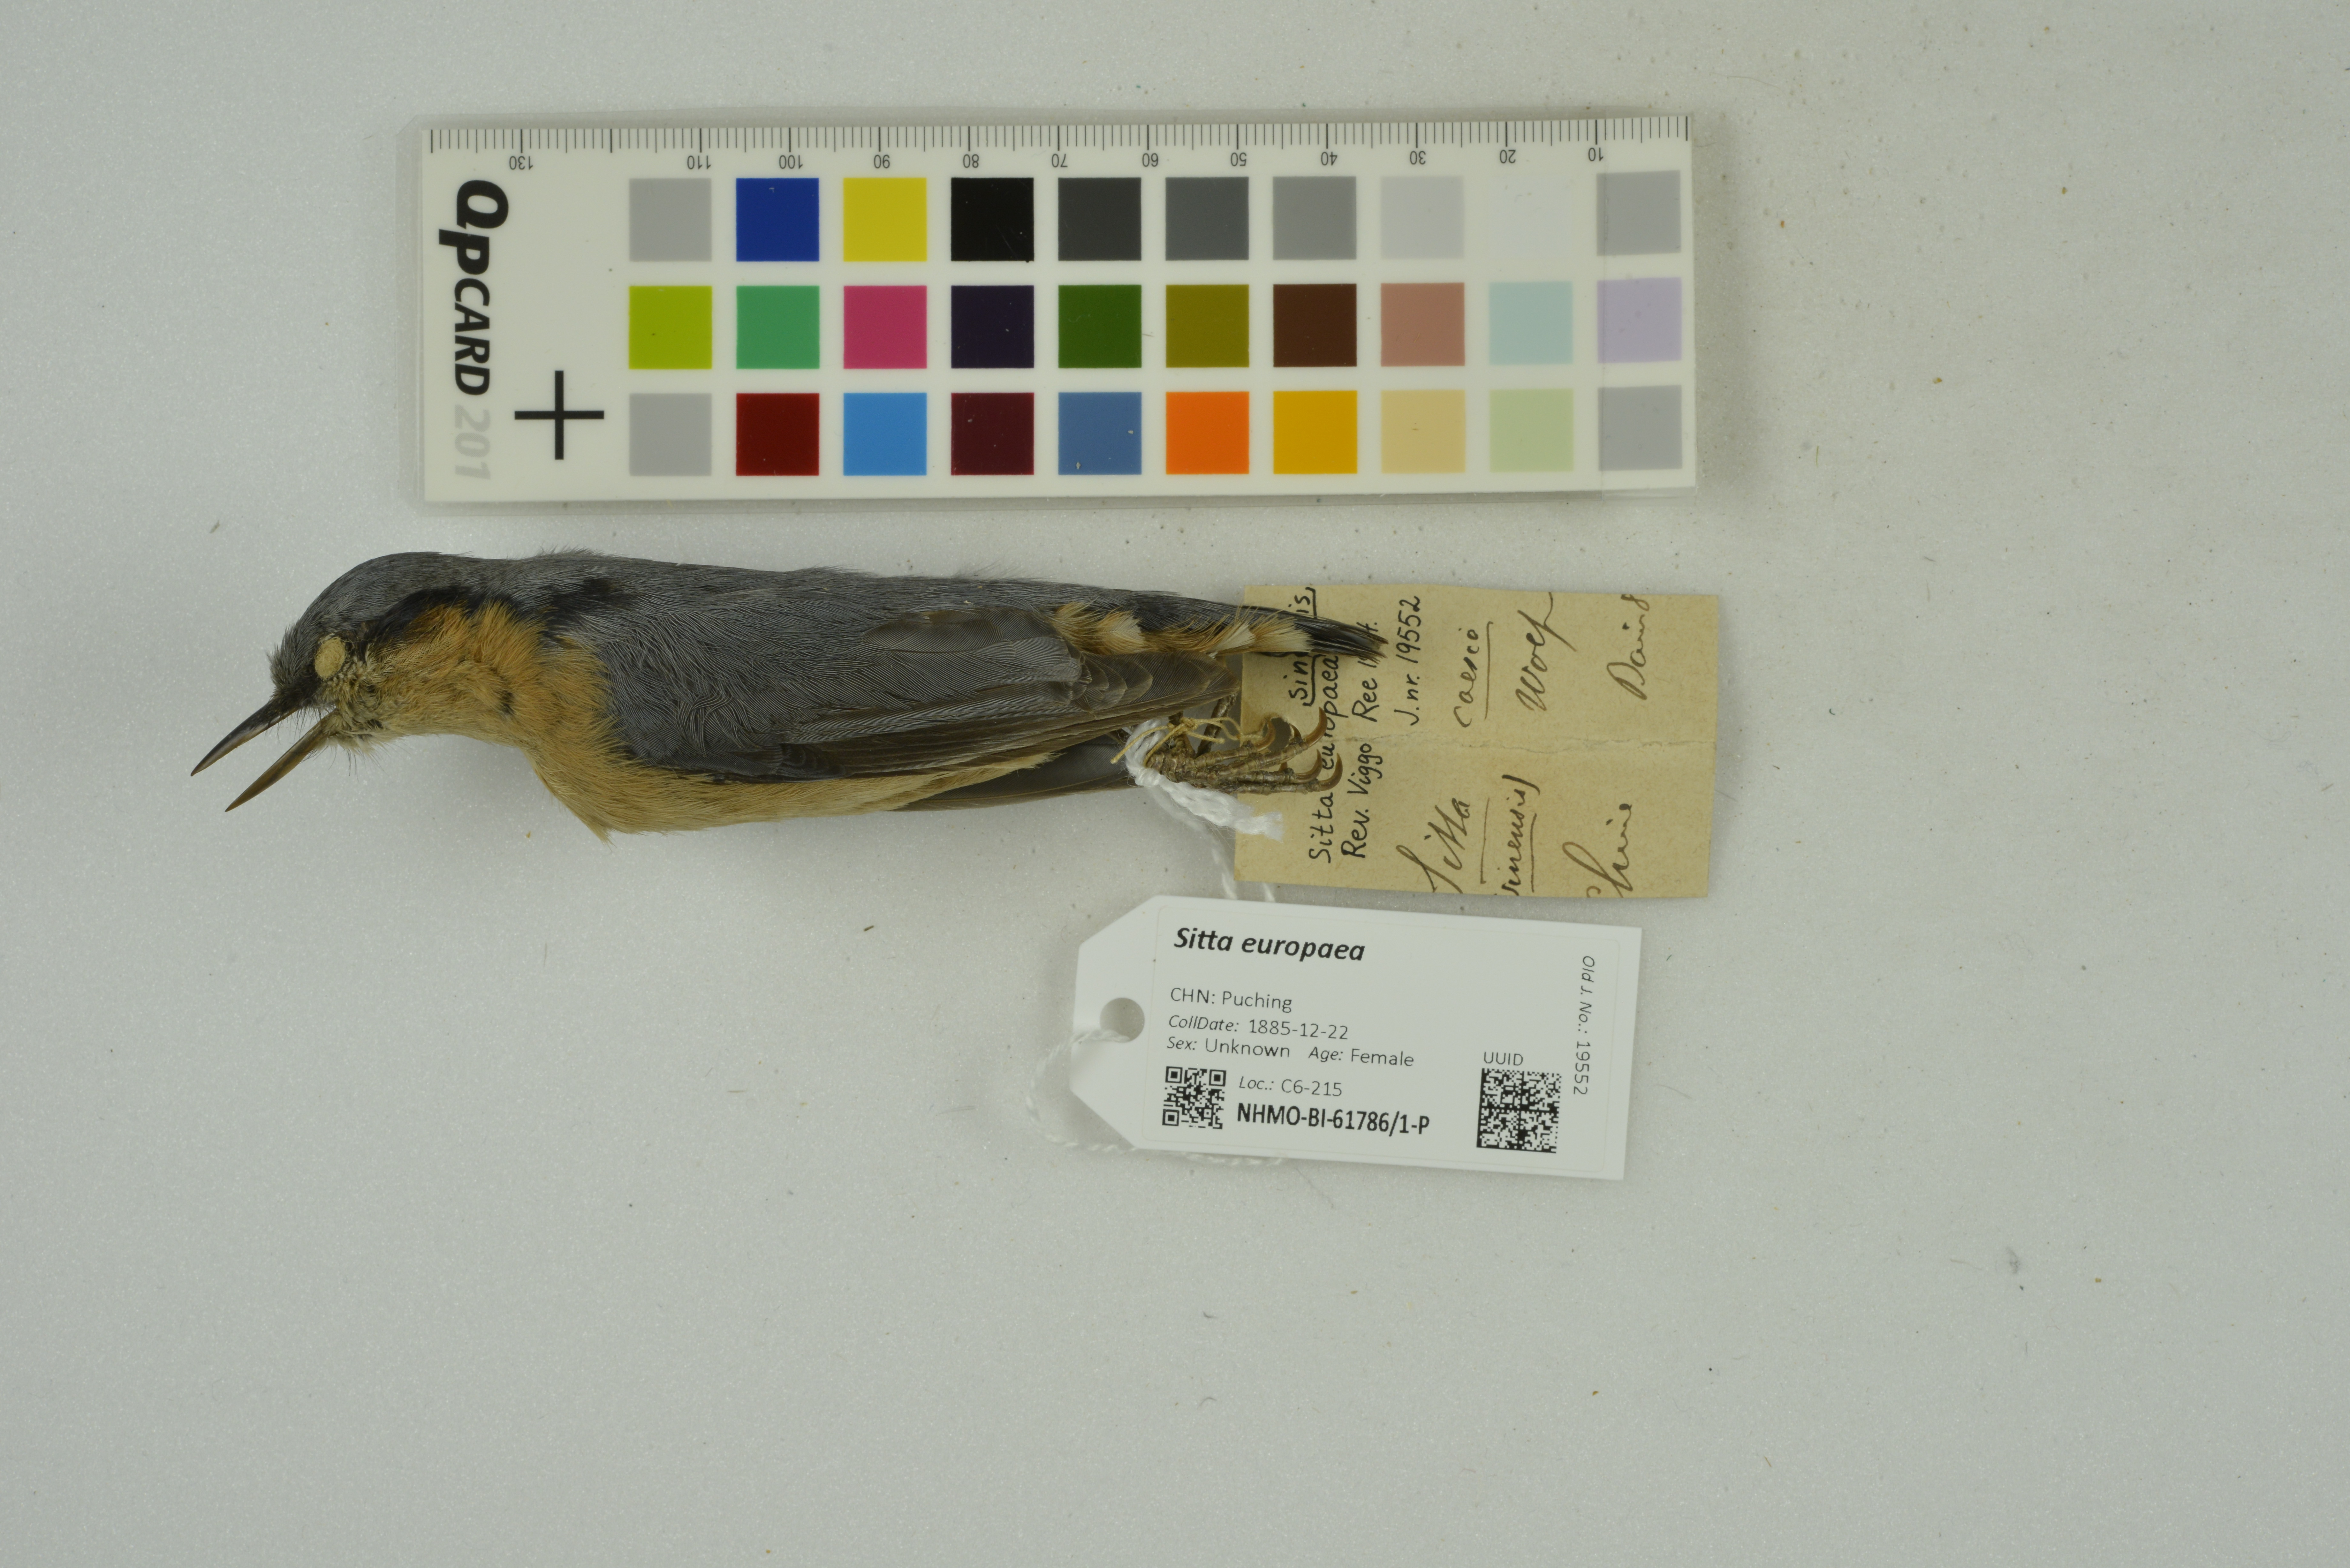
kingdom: Animalia
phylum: Chordata
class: Aves
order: Passeriformes
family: Sittidae
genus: Sitta
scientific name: Sitta europaea
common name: Eurasian nuthatch
